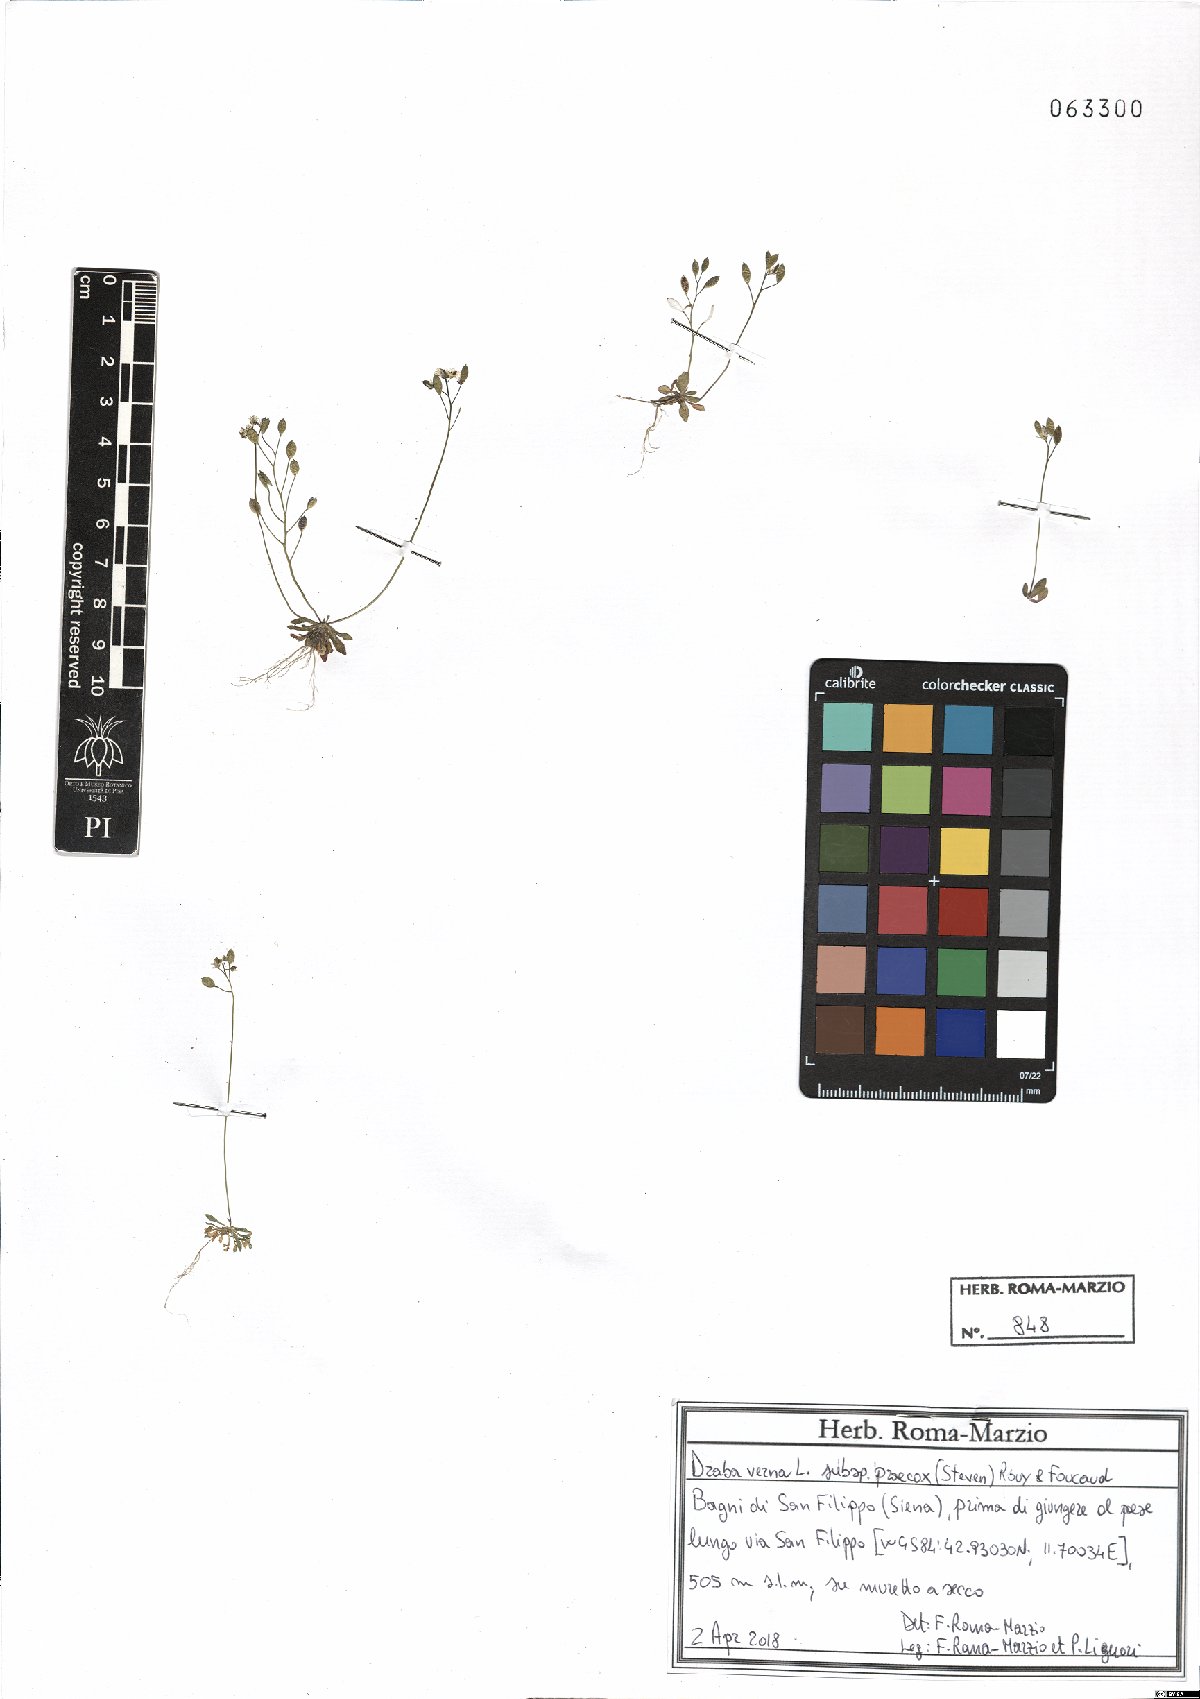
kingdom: Plantae
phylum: Tracheophyta
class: Magnoliopsida
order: Brassicales
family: Brassicaceae
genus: Draba
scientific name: Draba verna
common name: Spring draba
